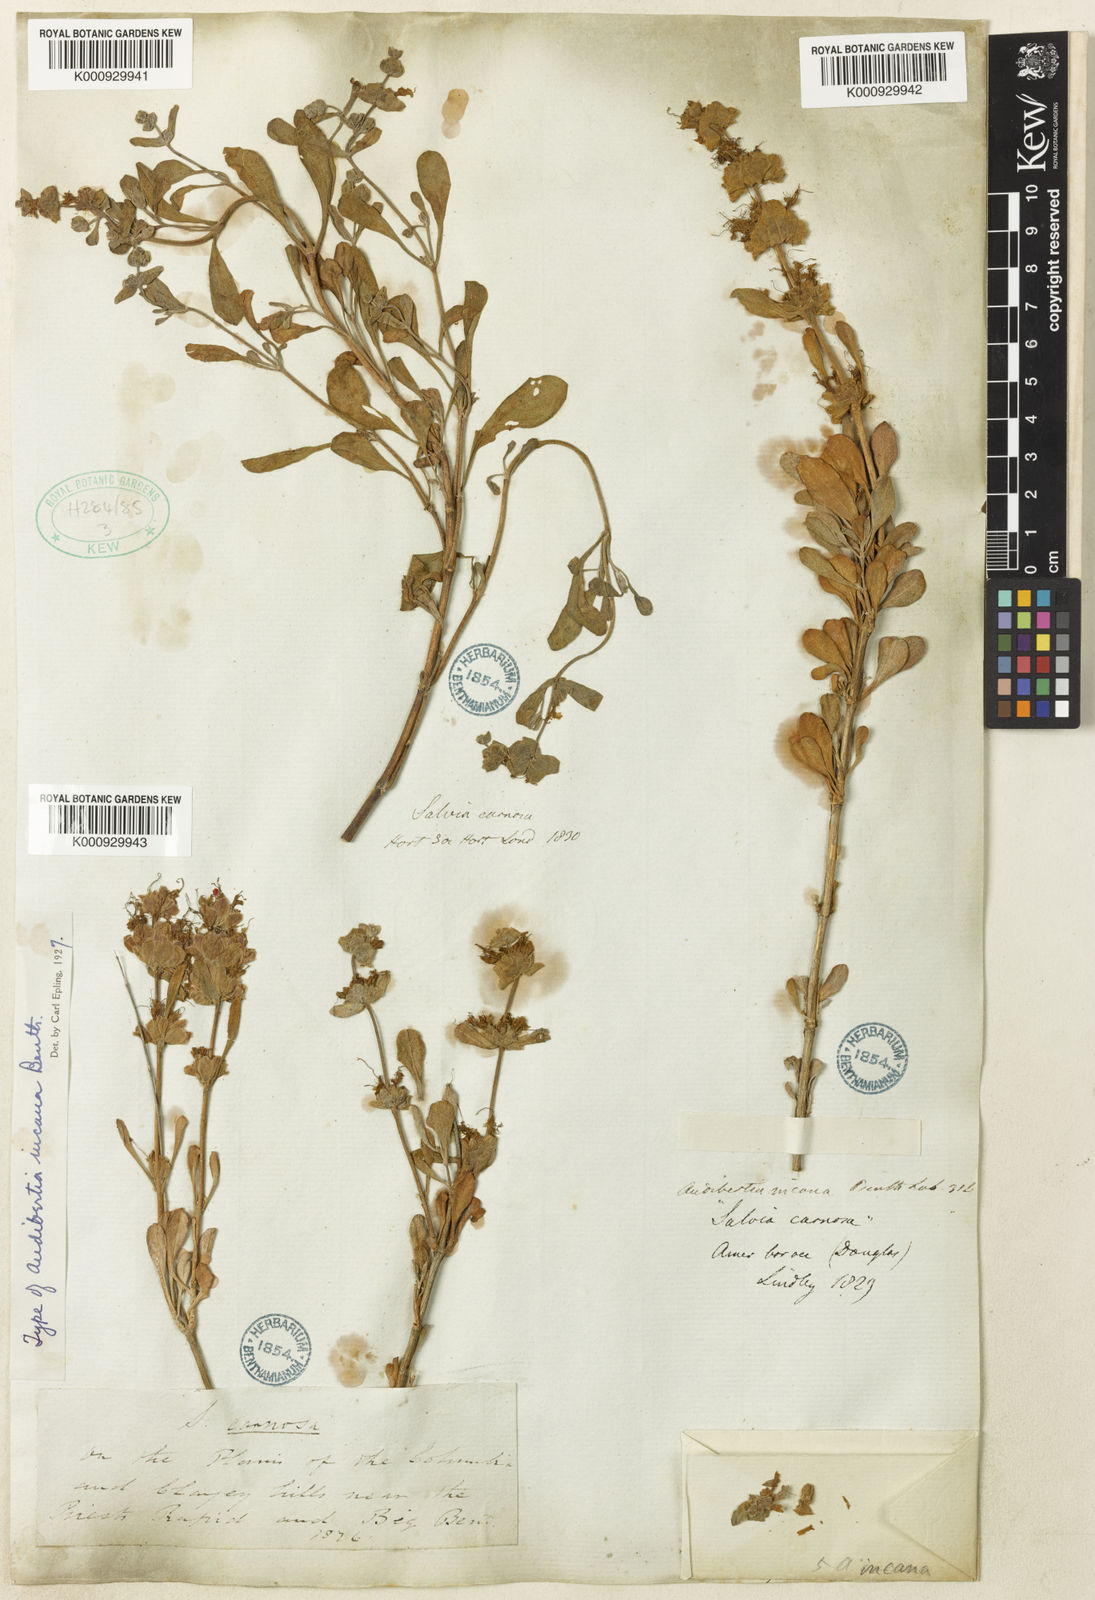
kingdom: Plantae
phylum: Tracheophyta
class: Magnoliopsida
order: Lamiales
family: Lamiaceae
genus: Salvia
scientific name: Salvia
